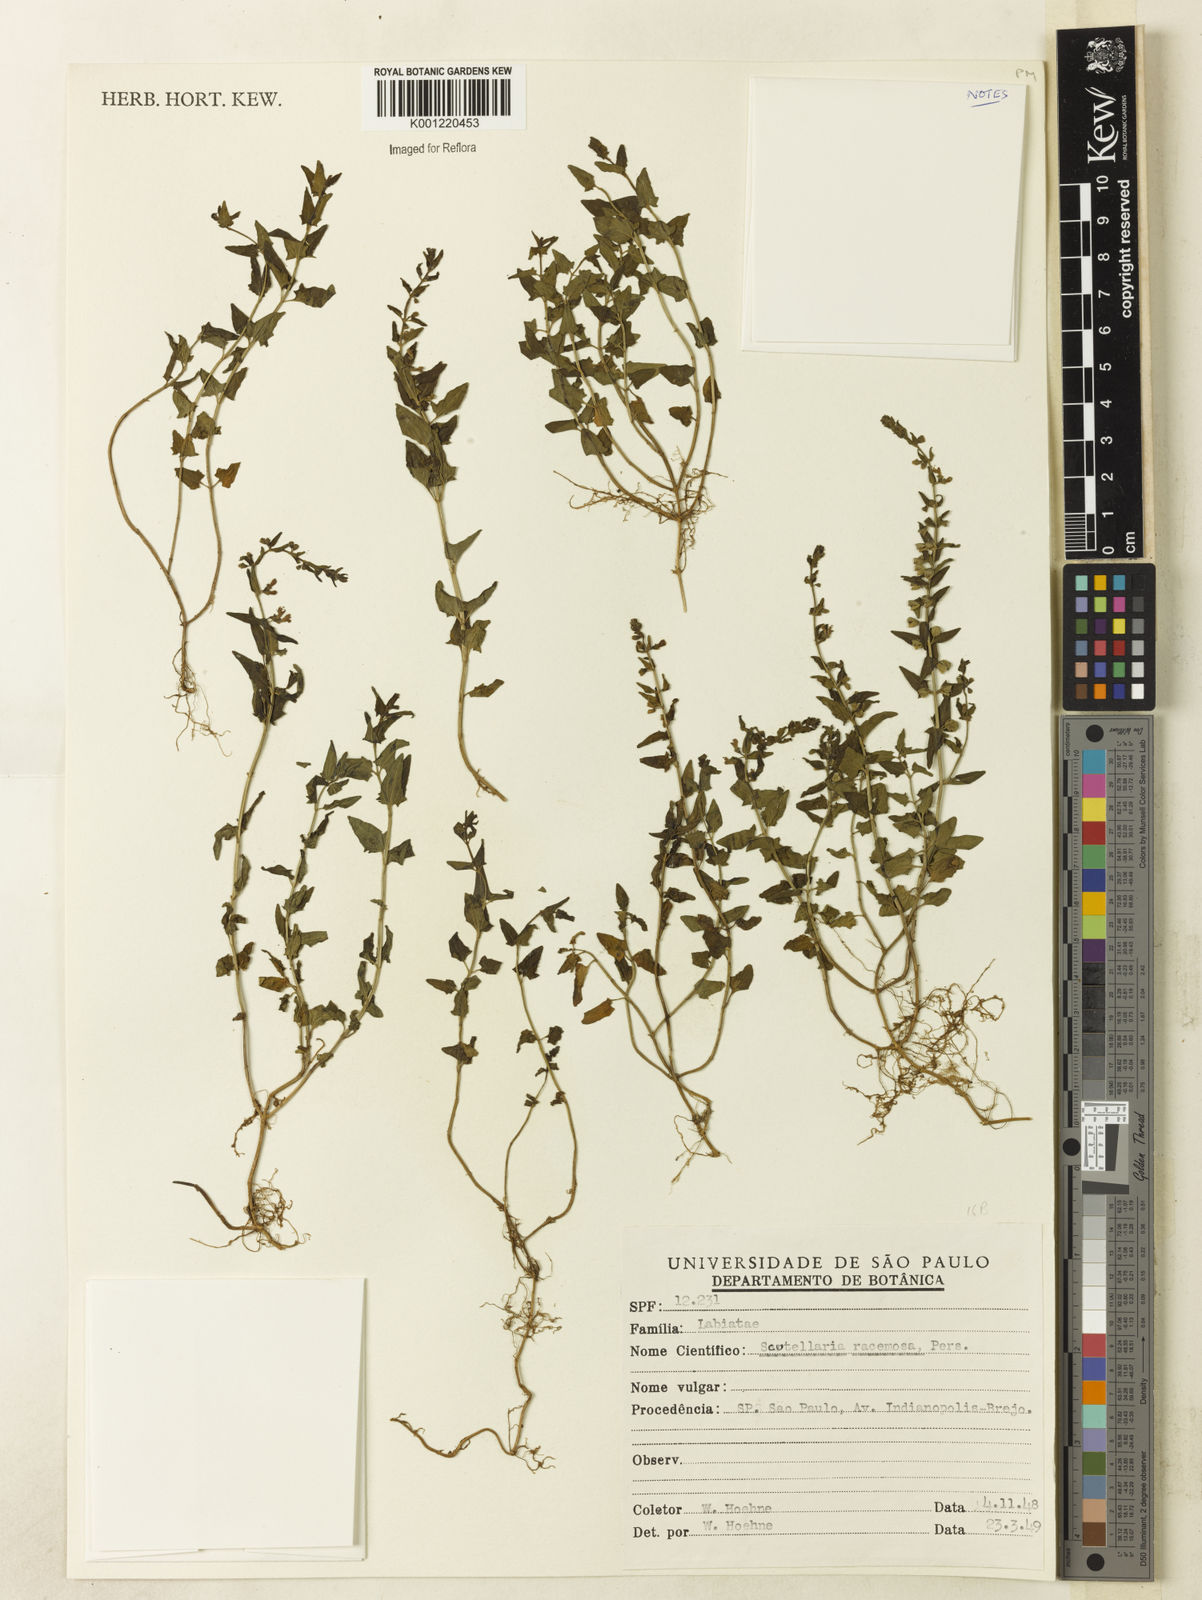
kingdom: Plantae
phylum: Tracheophyta
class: Magnoliopsida
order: Lamiales
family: Lamiaceae
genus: Scutellaria
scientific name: Scutellaria racemosa
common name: South american skullcap
